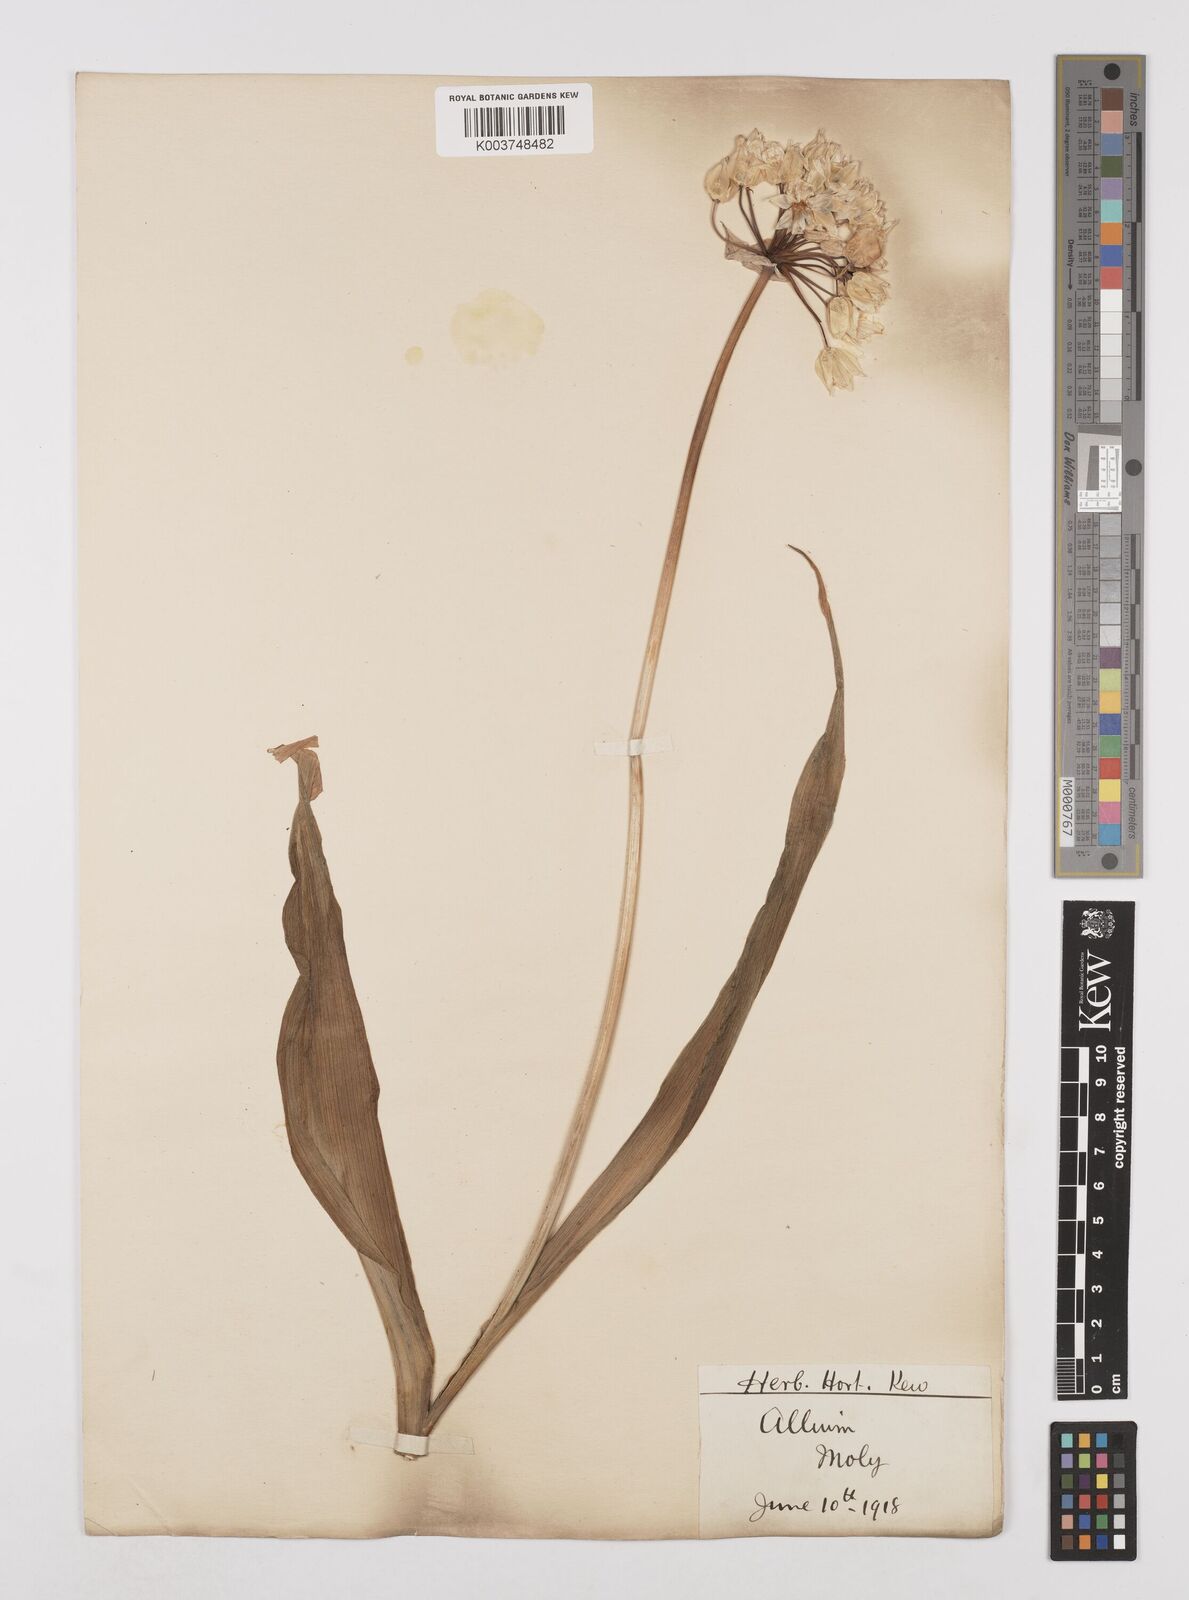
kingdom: Plantae
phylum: Tracheophyta
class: Liliopsida
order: Asparagales
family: Amaryllidaceae
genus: Allium
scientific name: Allium moly
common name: Yellow garlic
